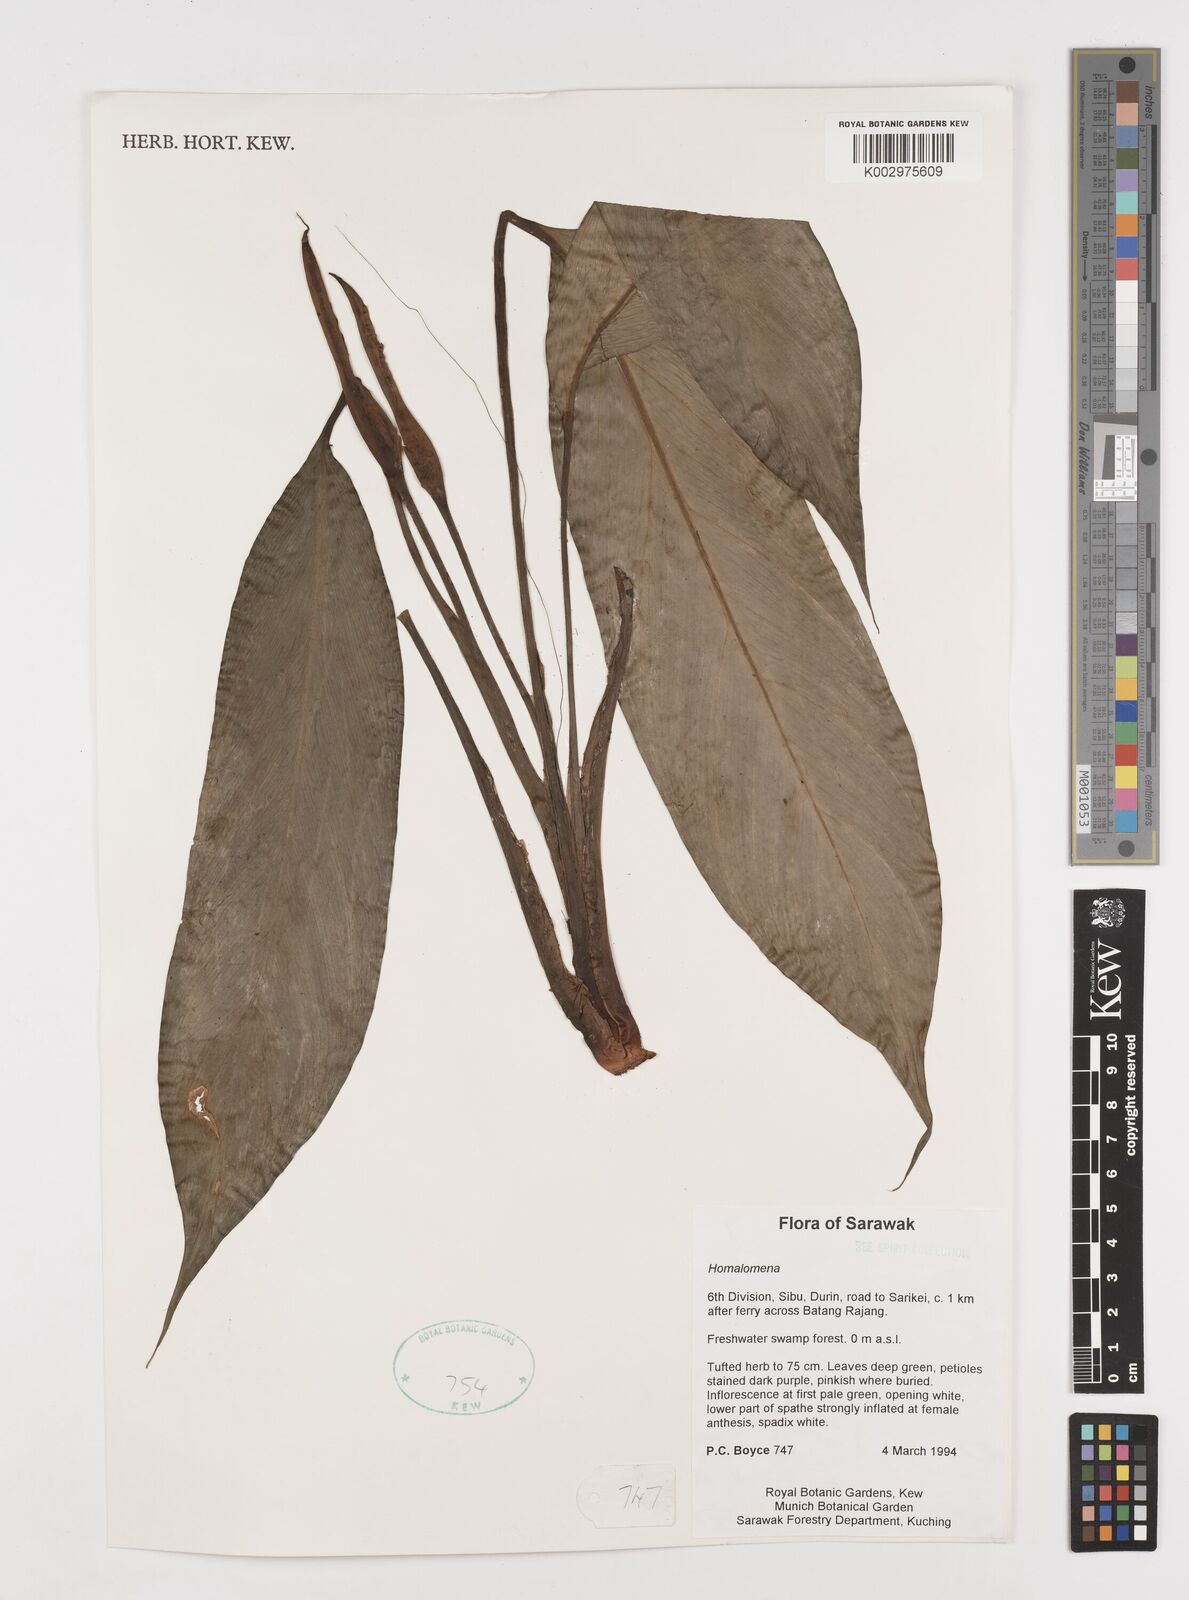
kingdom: Plantae
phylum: Tracheophyta
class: Liliopsida
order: Alismatales
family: Araceae
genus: Homalomena
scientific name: Homalomena
